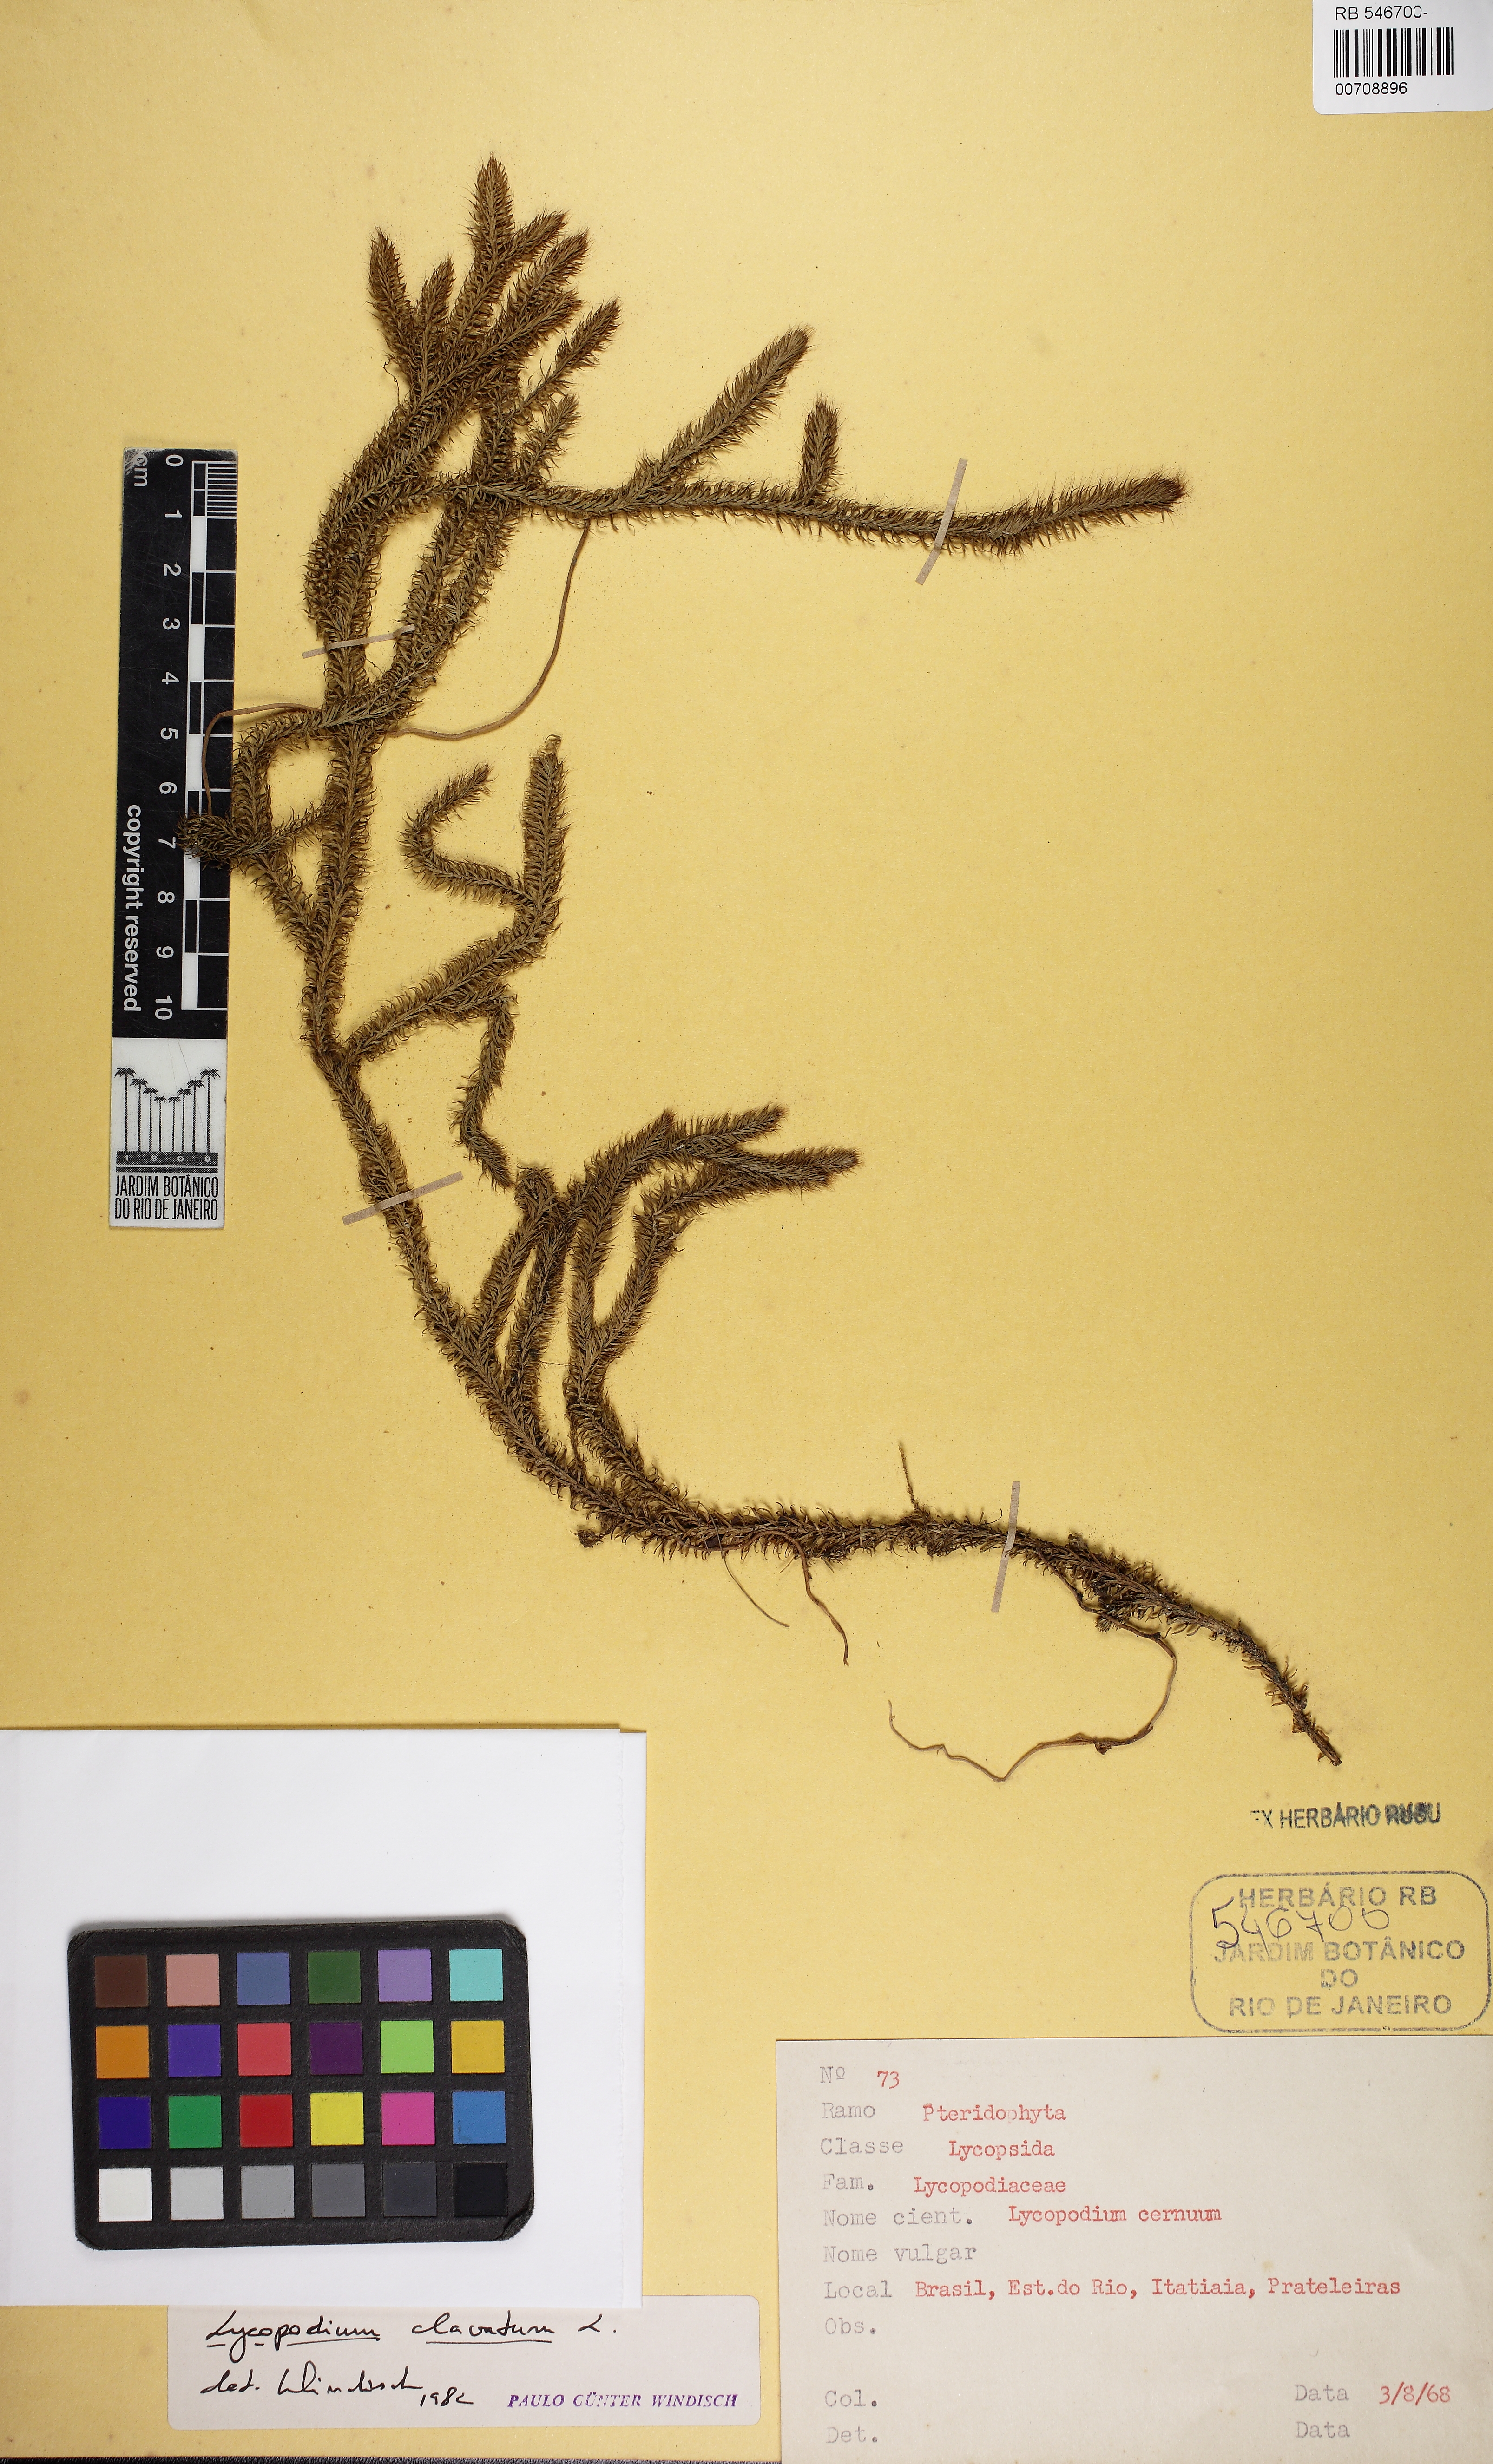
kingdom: Plantae
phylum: Tracheophyta
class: Lycopodiopsida
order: Lycopodiales
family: Lycopodiaceae
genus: Lycopodium
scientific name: Lycopodium clavatum
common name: Stag's-horn clubmoss
